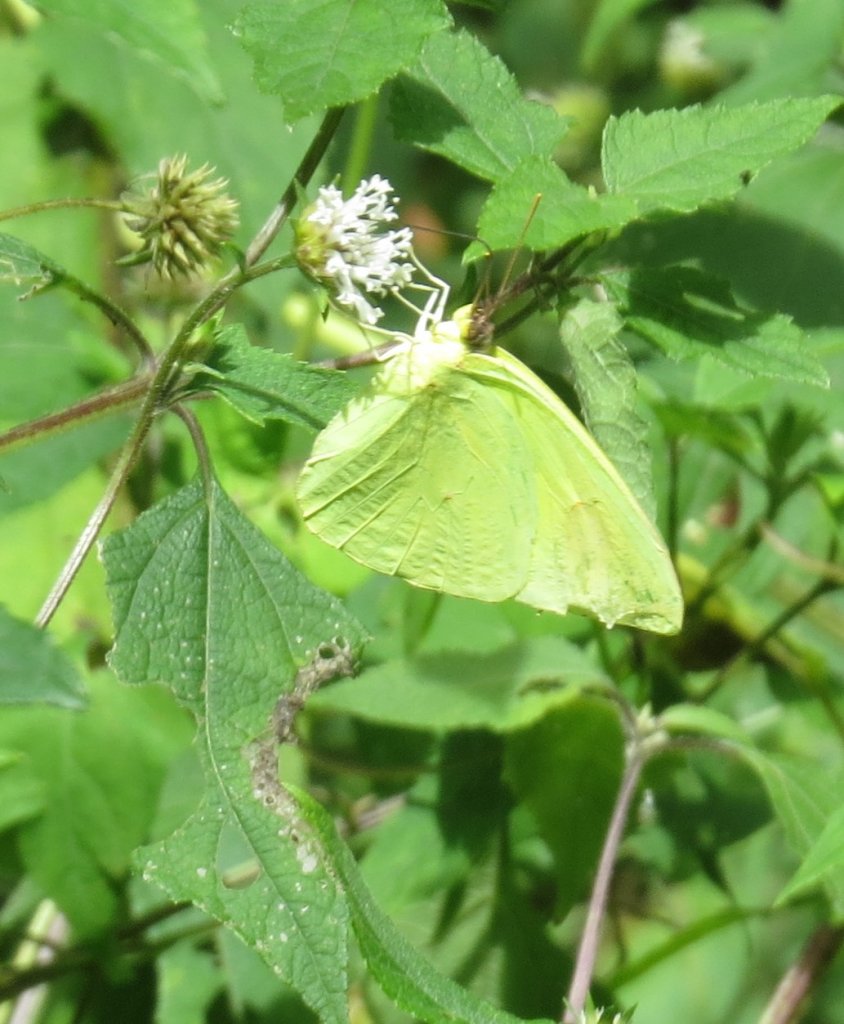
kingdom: Animalia
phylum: Arthropoda
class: Insecta
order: Lepidoptera
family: Pieridae
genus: Phoebis
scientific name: Phoebis sennae
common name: Cloudless Sulphur
